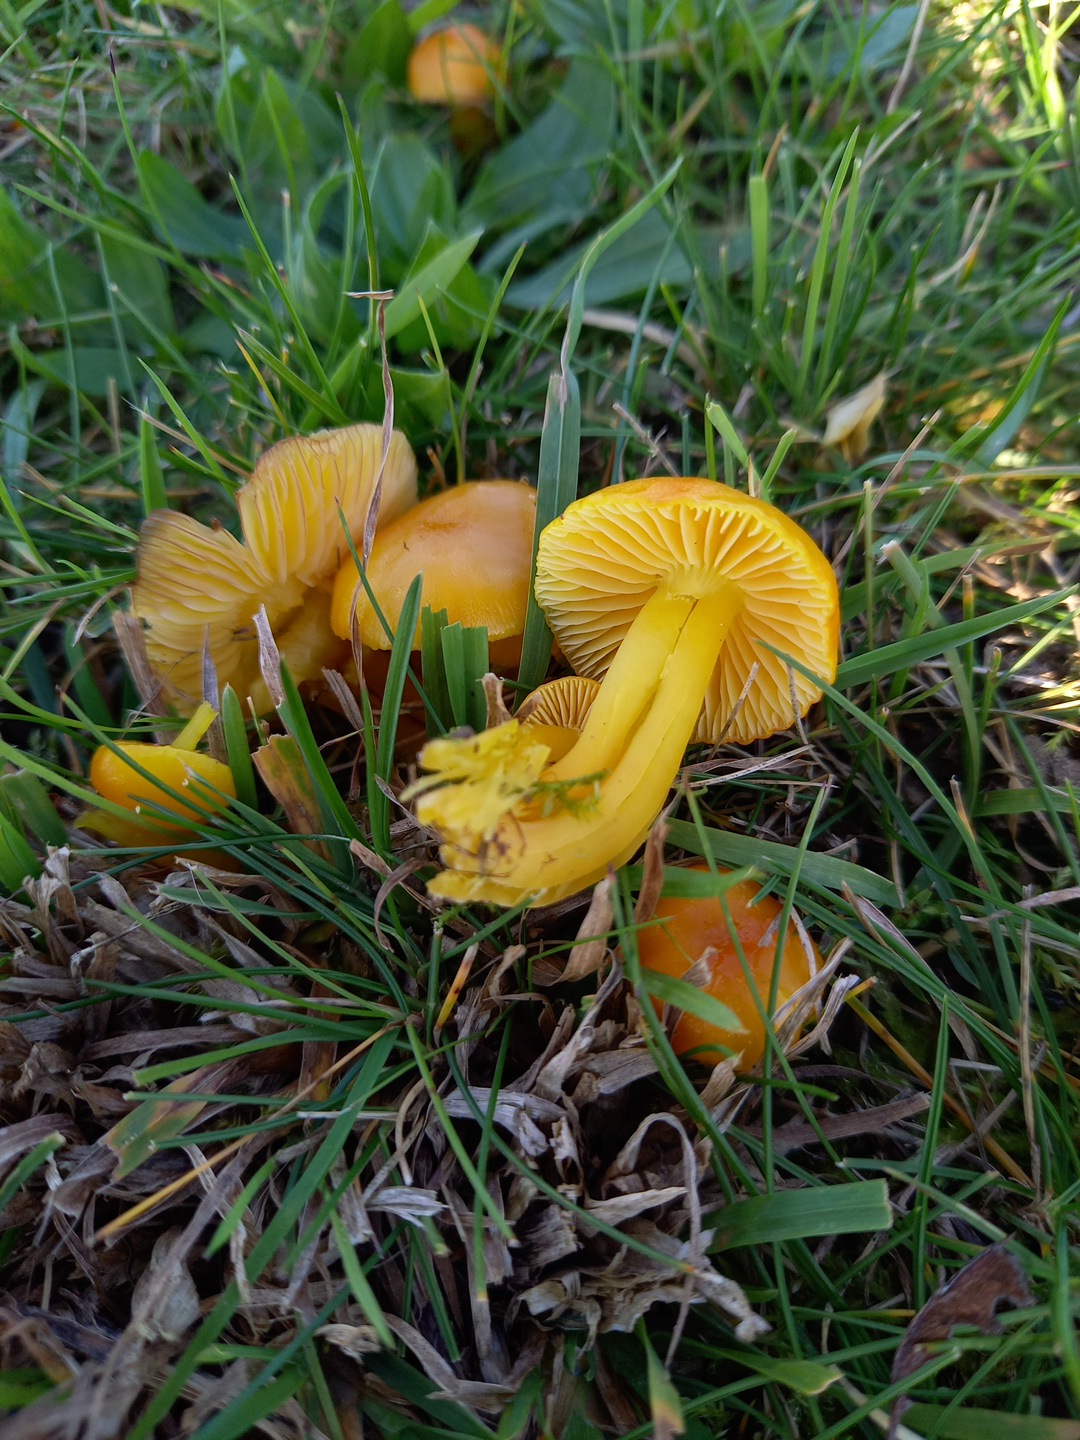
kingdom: Fungi
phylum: Basidiomycota
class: Agaricomycetes
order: Agaricales
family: Hygrophoraceae
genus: Hygrocybe
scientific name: Hygrocybe ceracea
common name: voksgul vokshat
